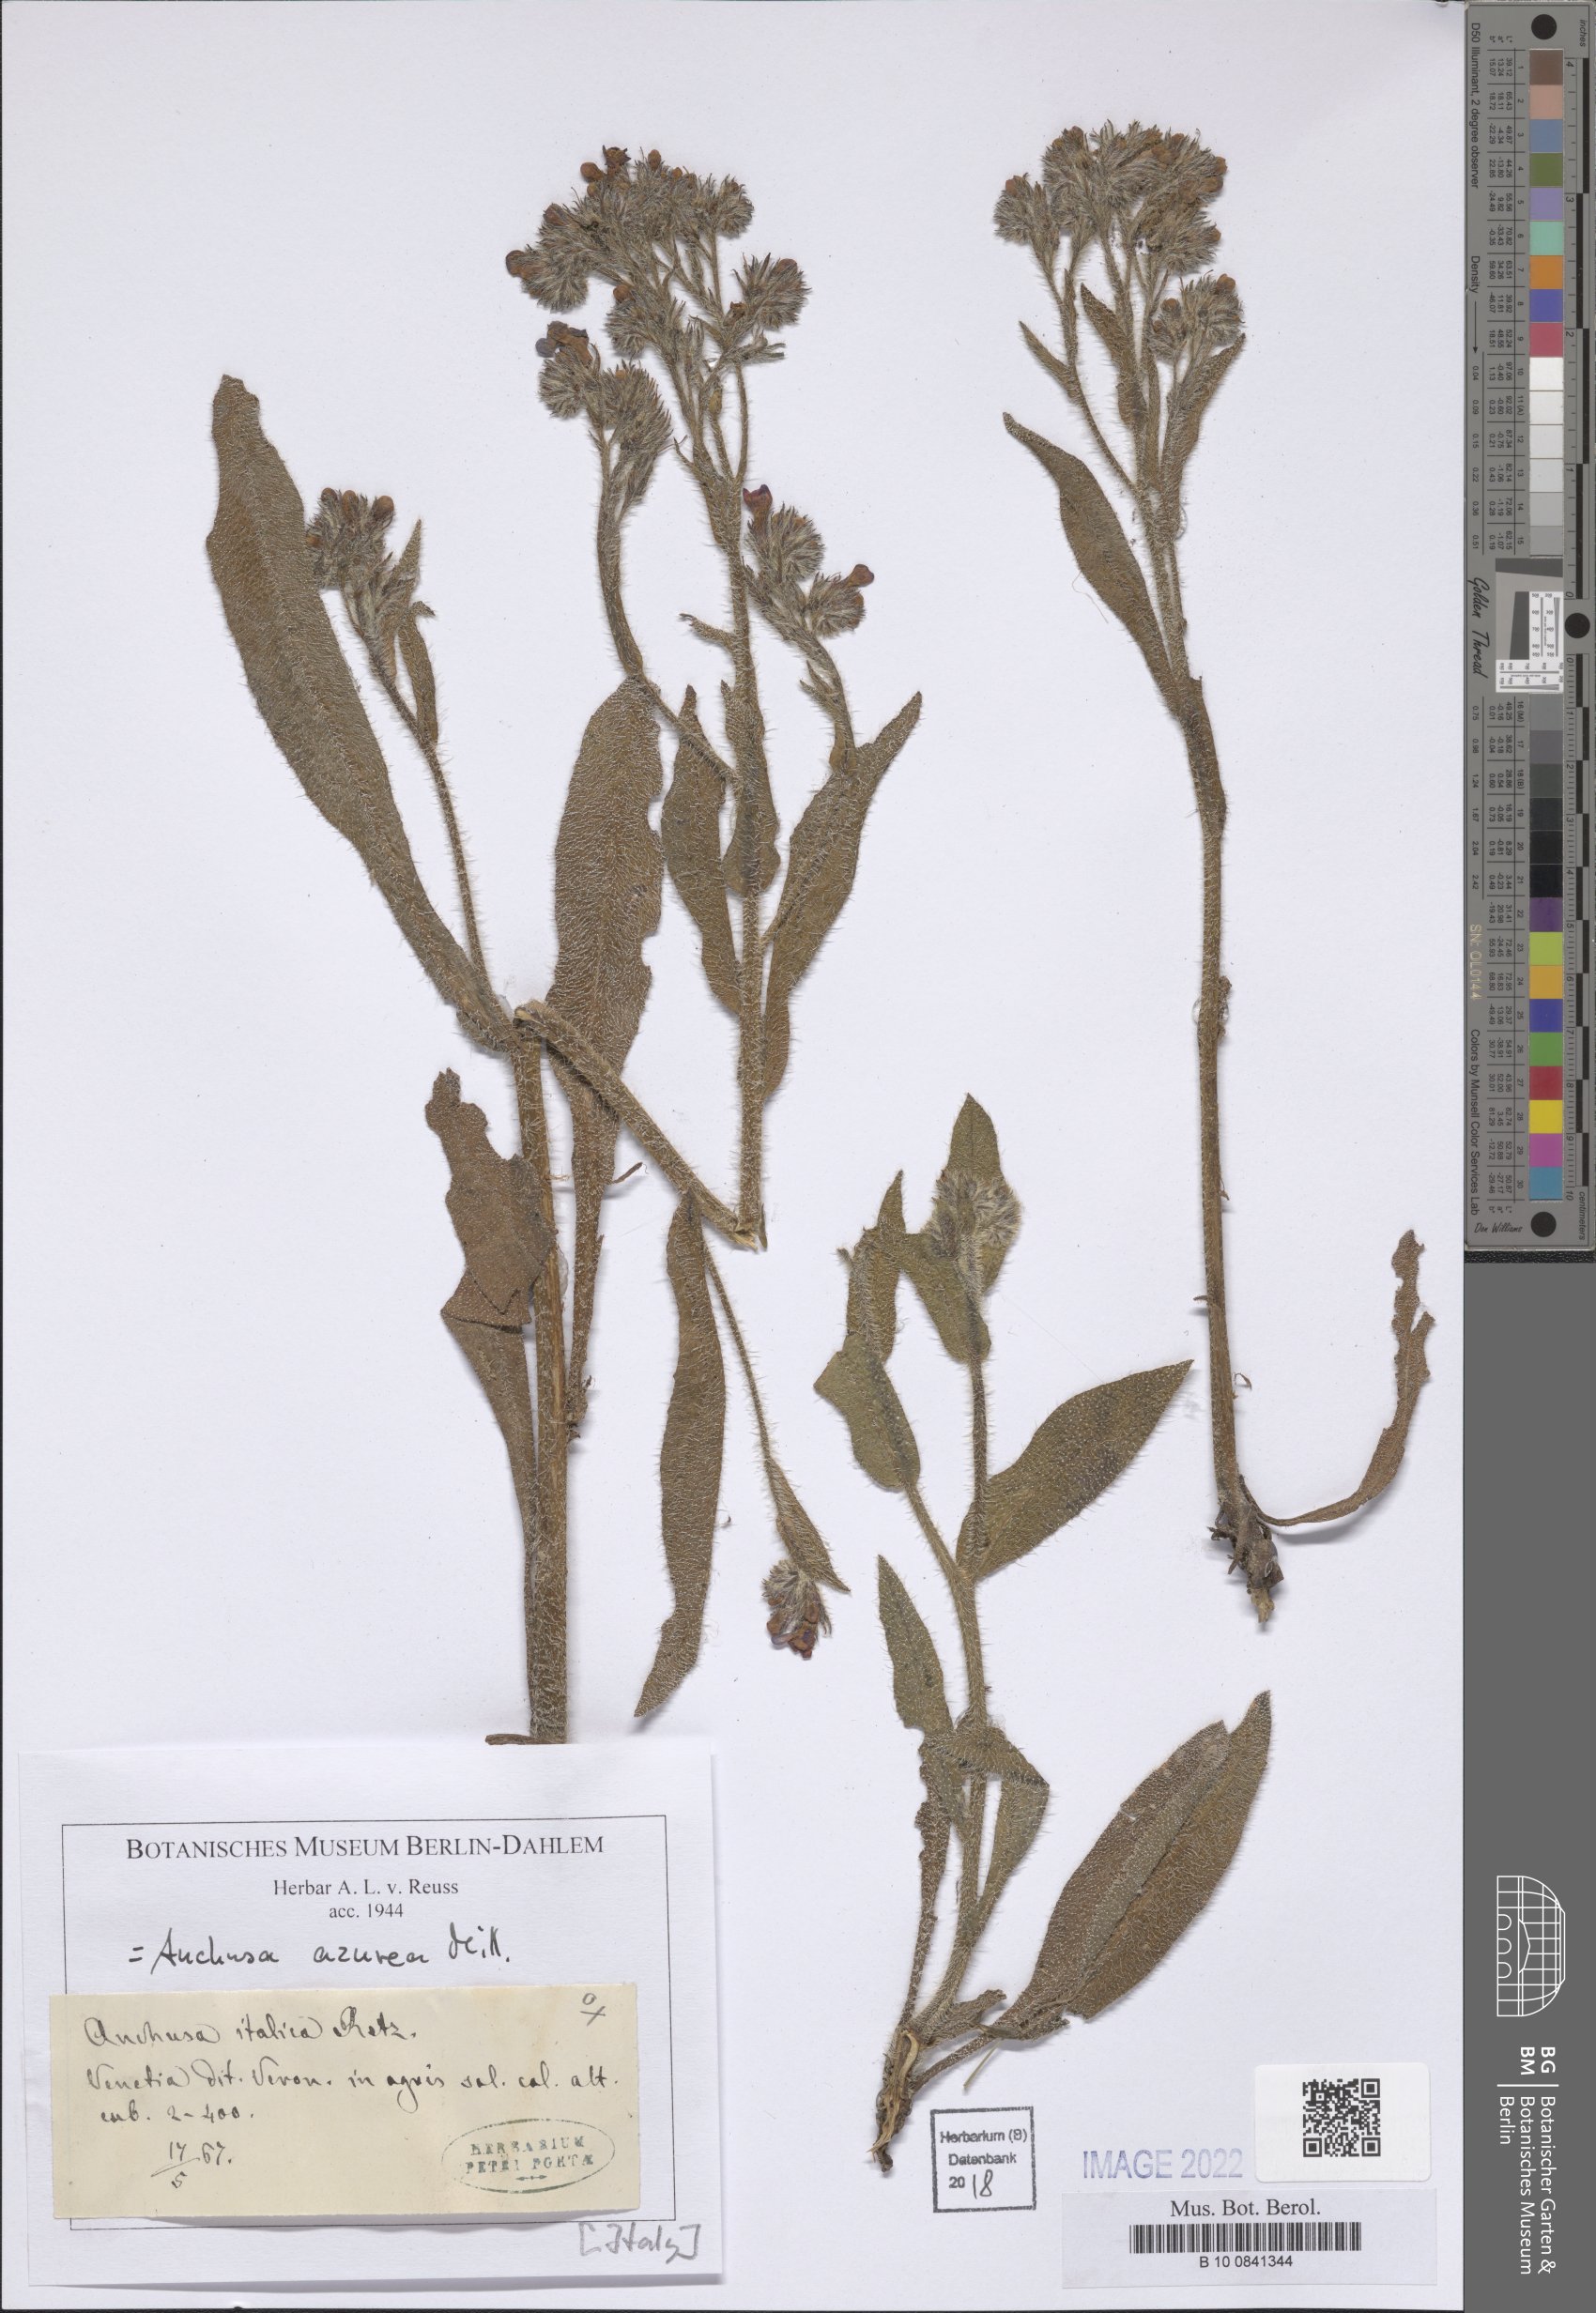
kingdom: Plantae
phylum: Tracheophyta
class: Magnoliopsida
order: Boraginales
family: Boraginaceae
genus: Anchusa
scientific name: Anchusa azurea
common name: Garden anchusa
